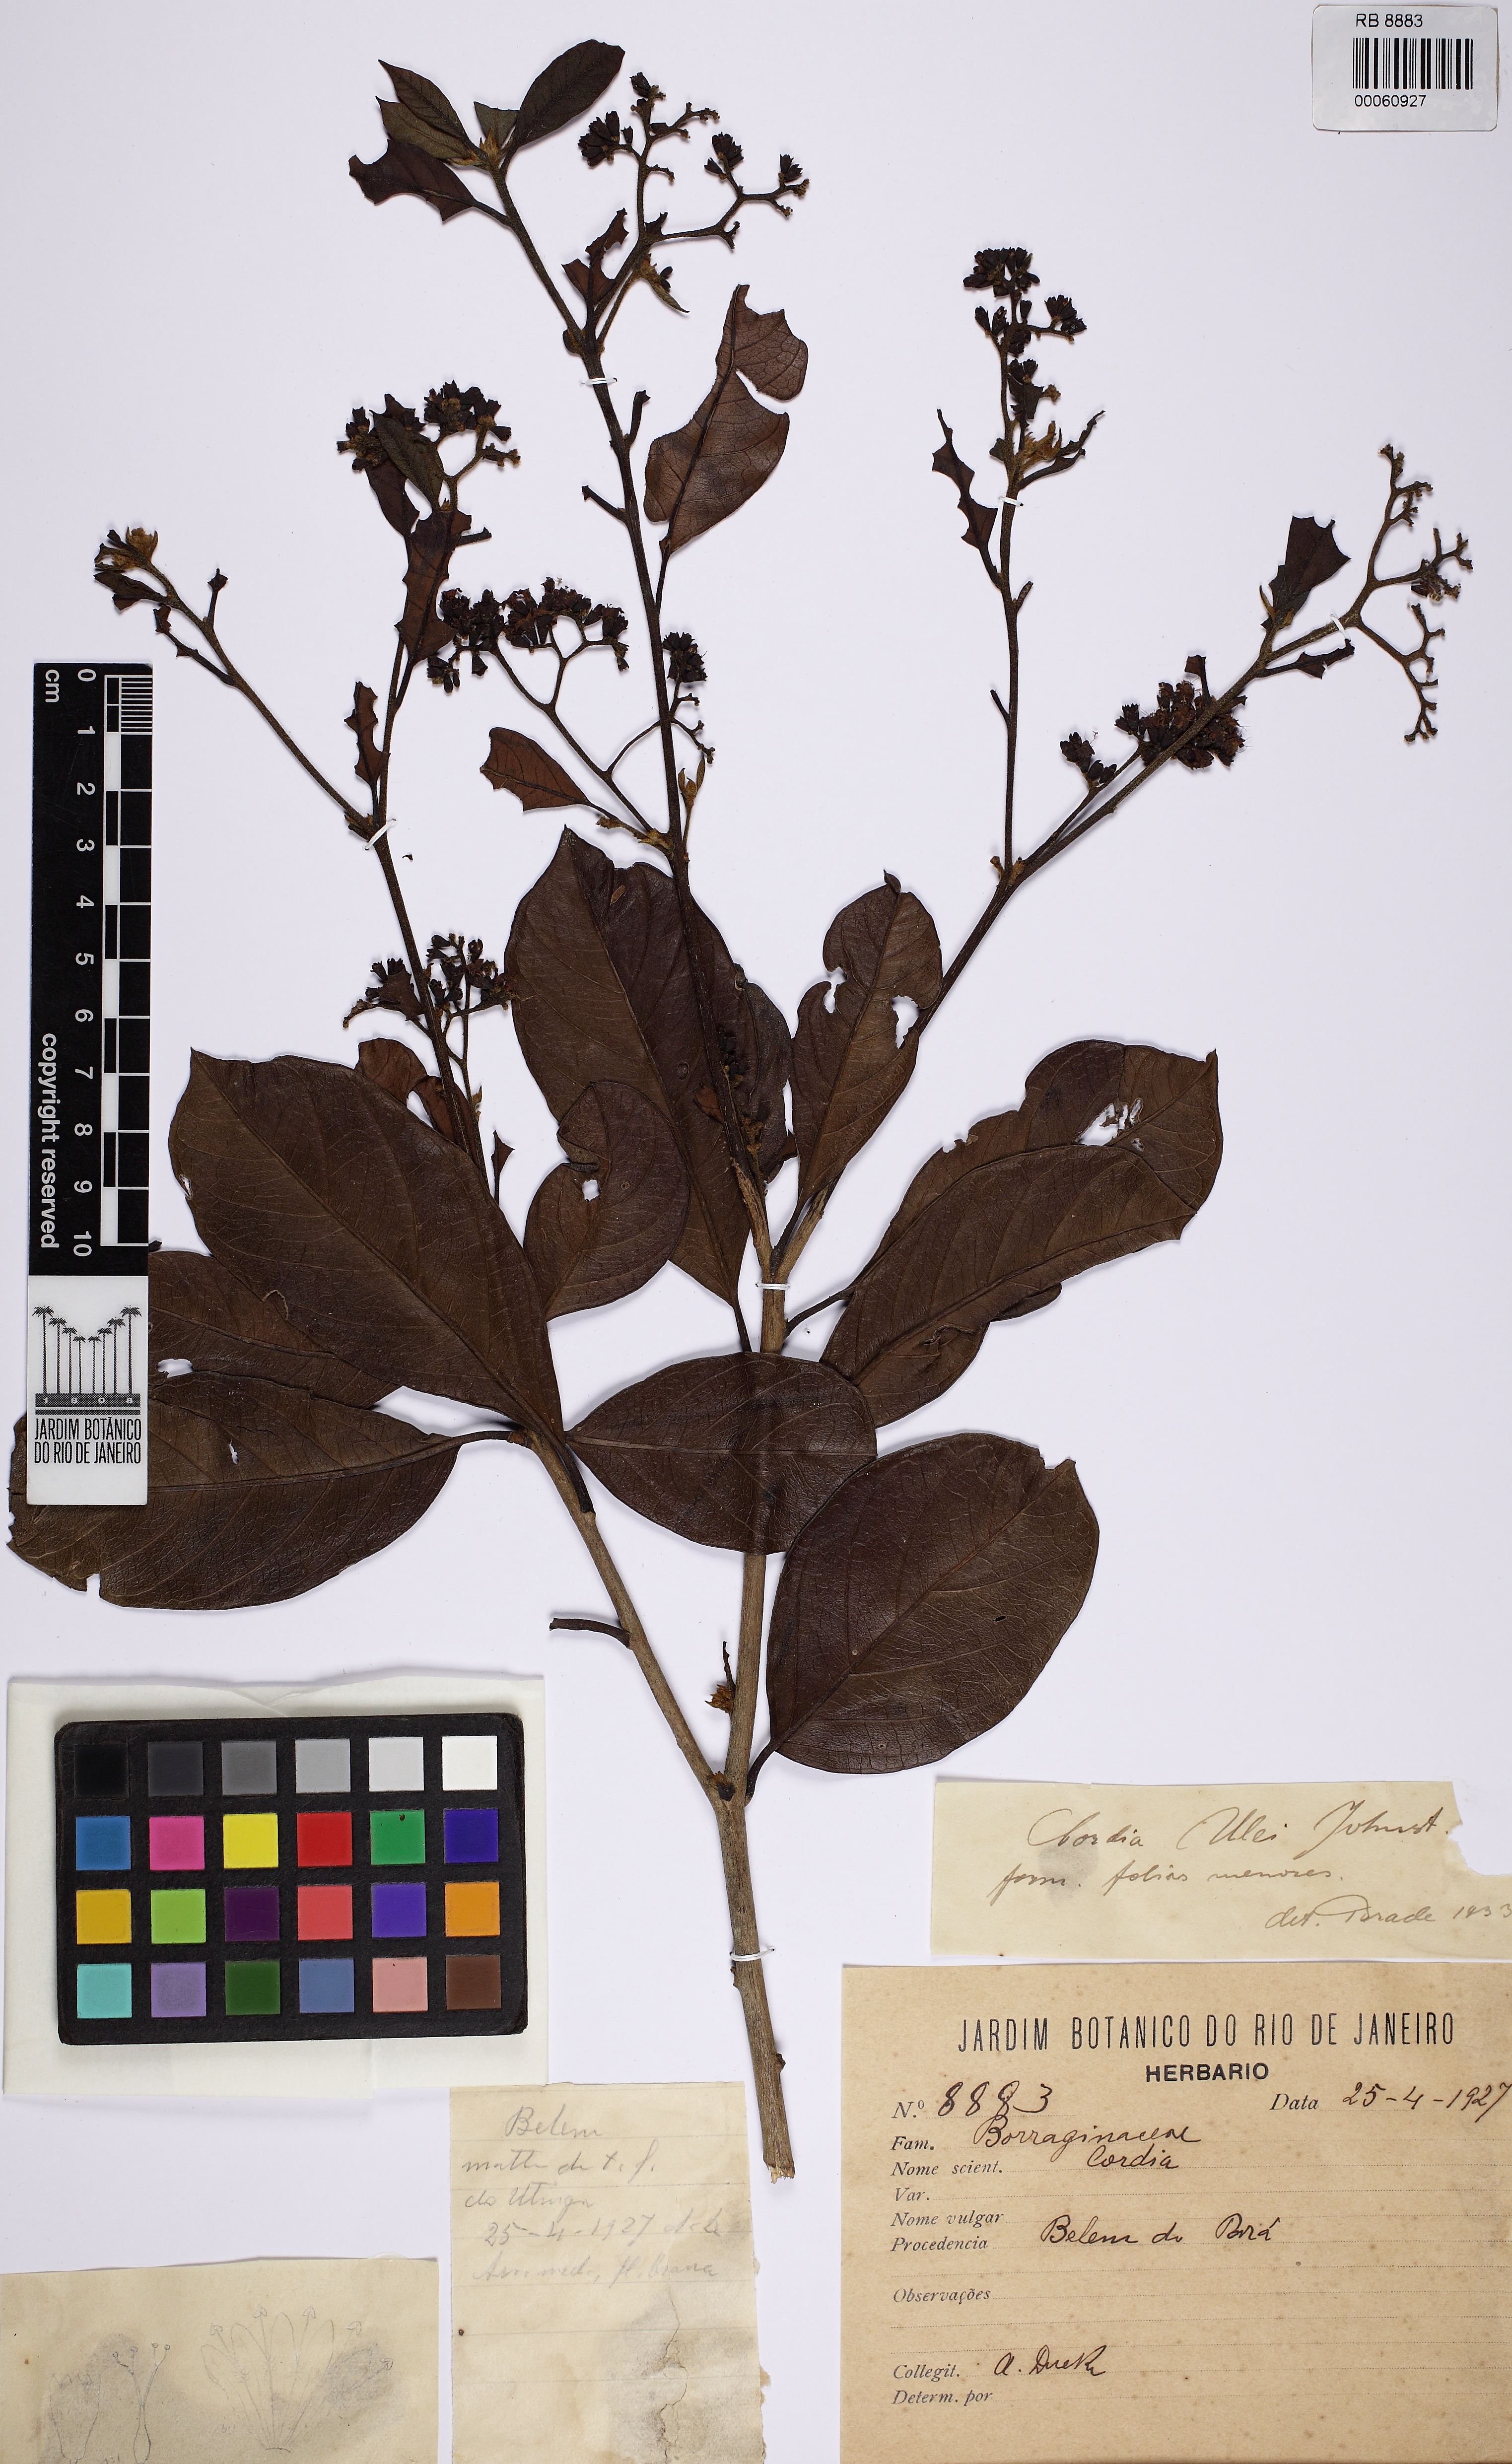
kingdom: Plantae
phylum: Tracheophyta
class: Magnoliopsida
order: Boraginales
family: Cordiaceae
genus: Cordia
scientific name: Cordia ulei
